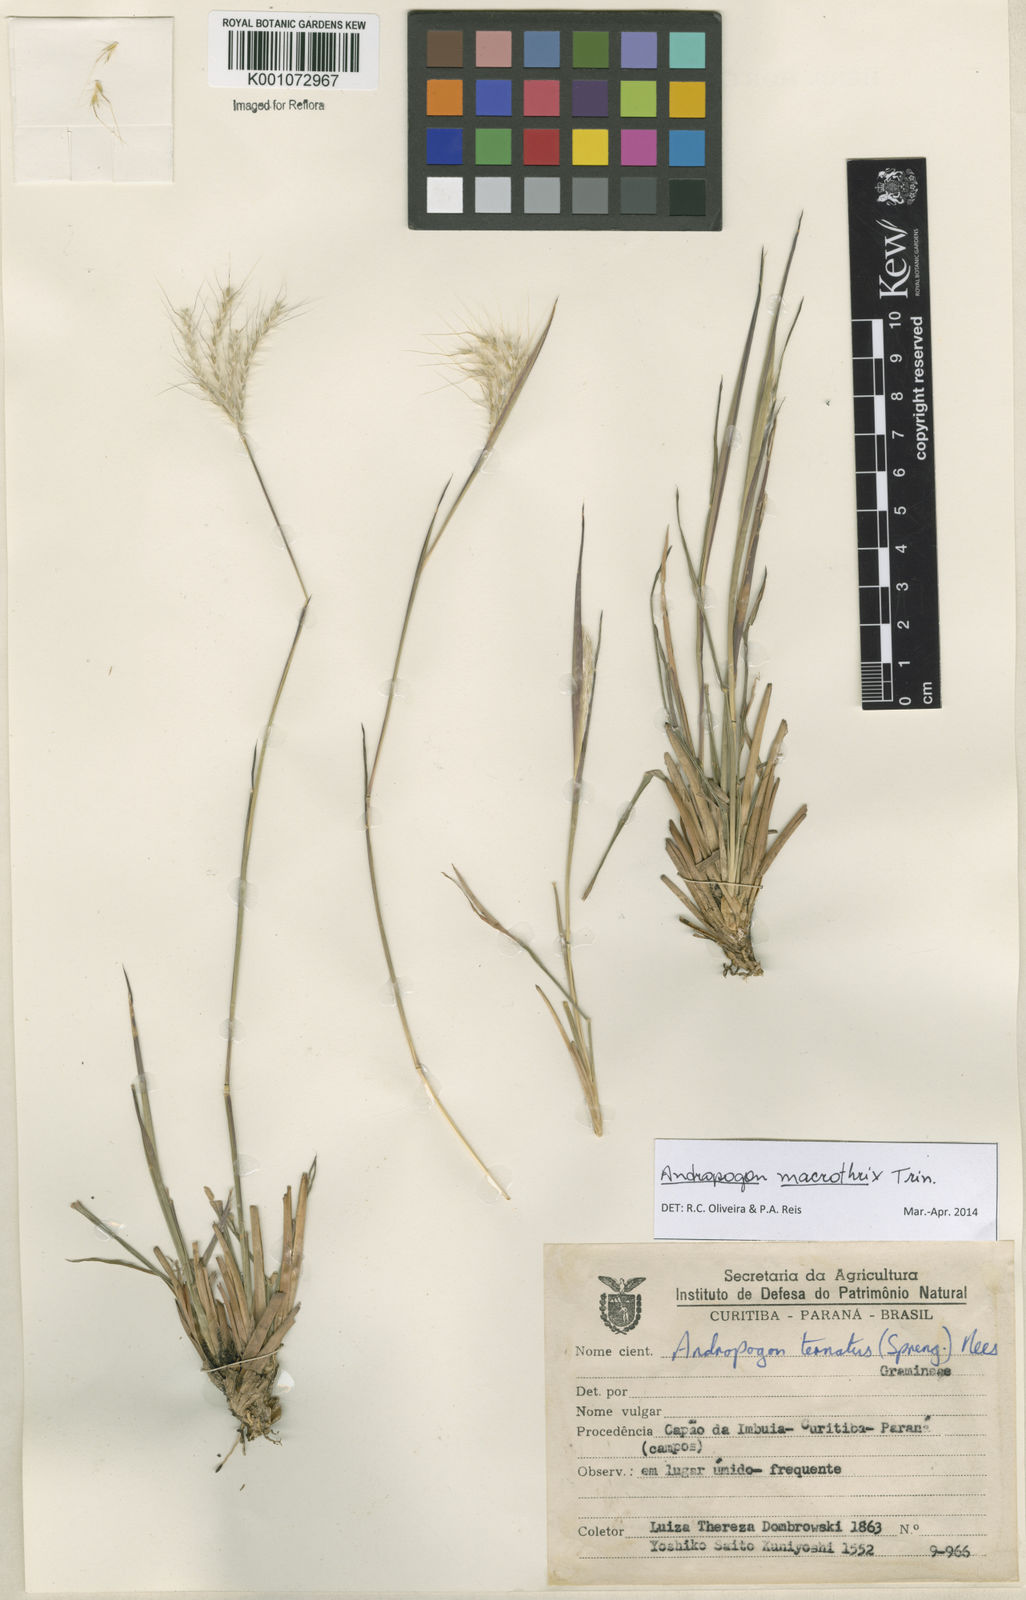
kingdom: Plantae
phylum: Tracheophyta
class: Liliopsida
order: Poales
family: Poaceae
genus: Andropogon
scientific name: Andropogon macrothrix
